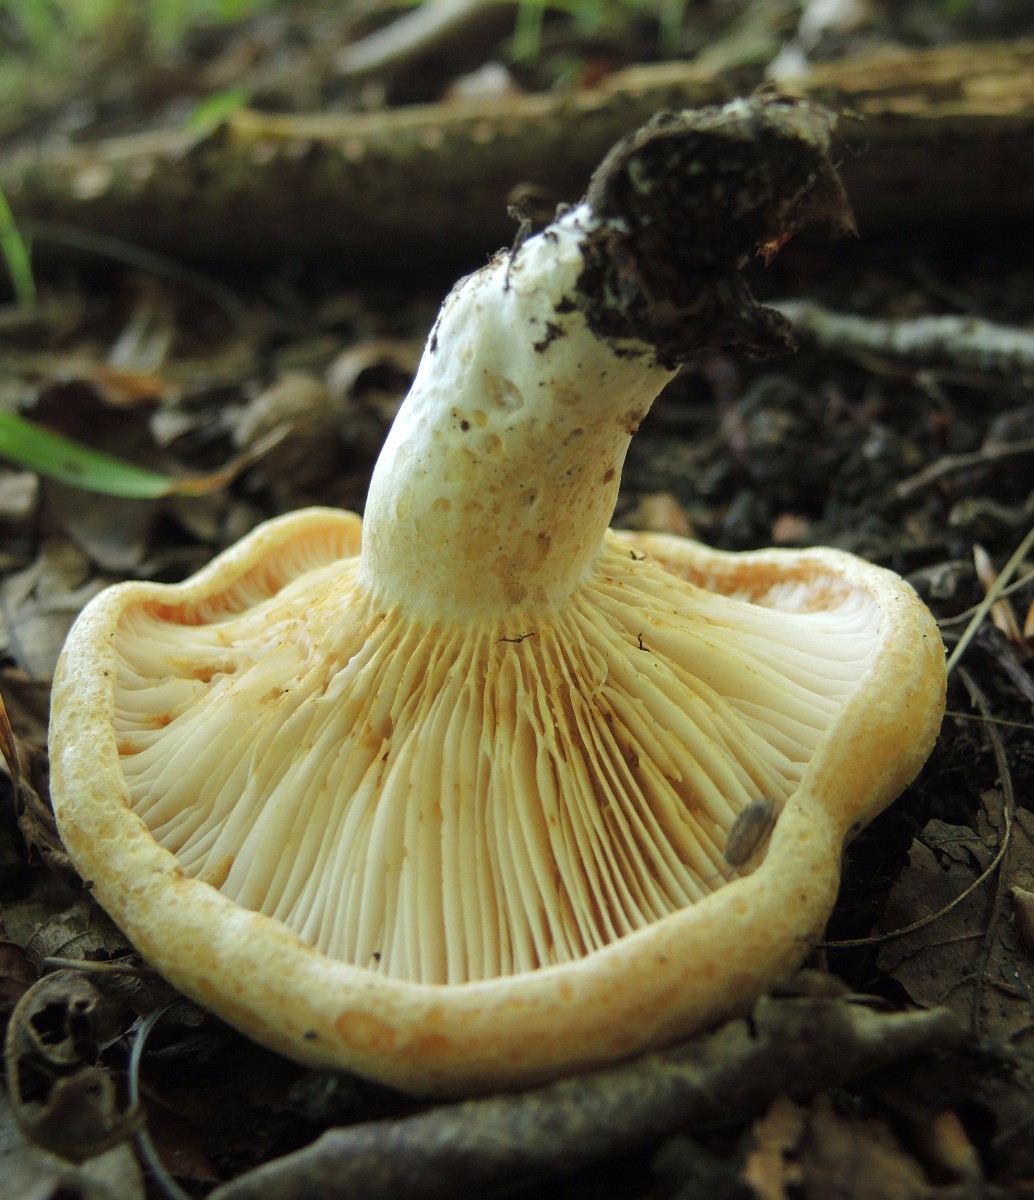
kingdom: Fungi
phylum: Basidiomycota
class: Agaricomycetes
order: Russulales
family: Russulaceae
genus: Lactarius
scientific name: Lactarius acerrimus
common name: brændende mælkehat
